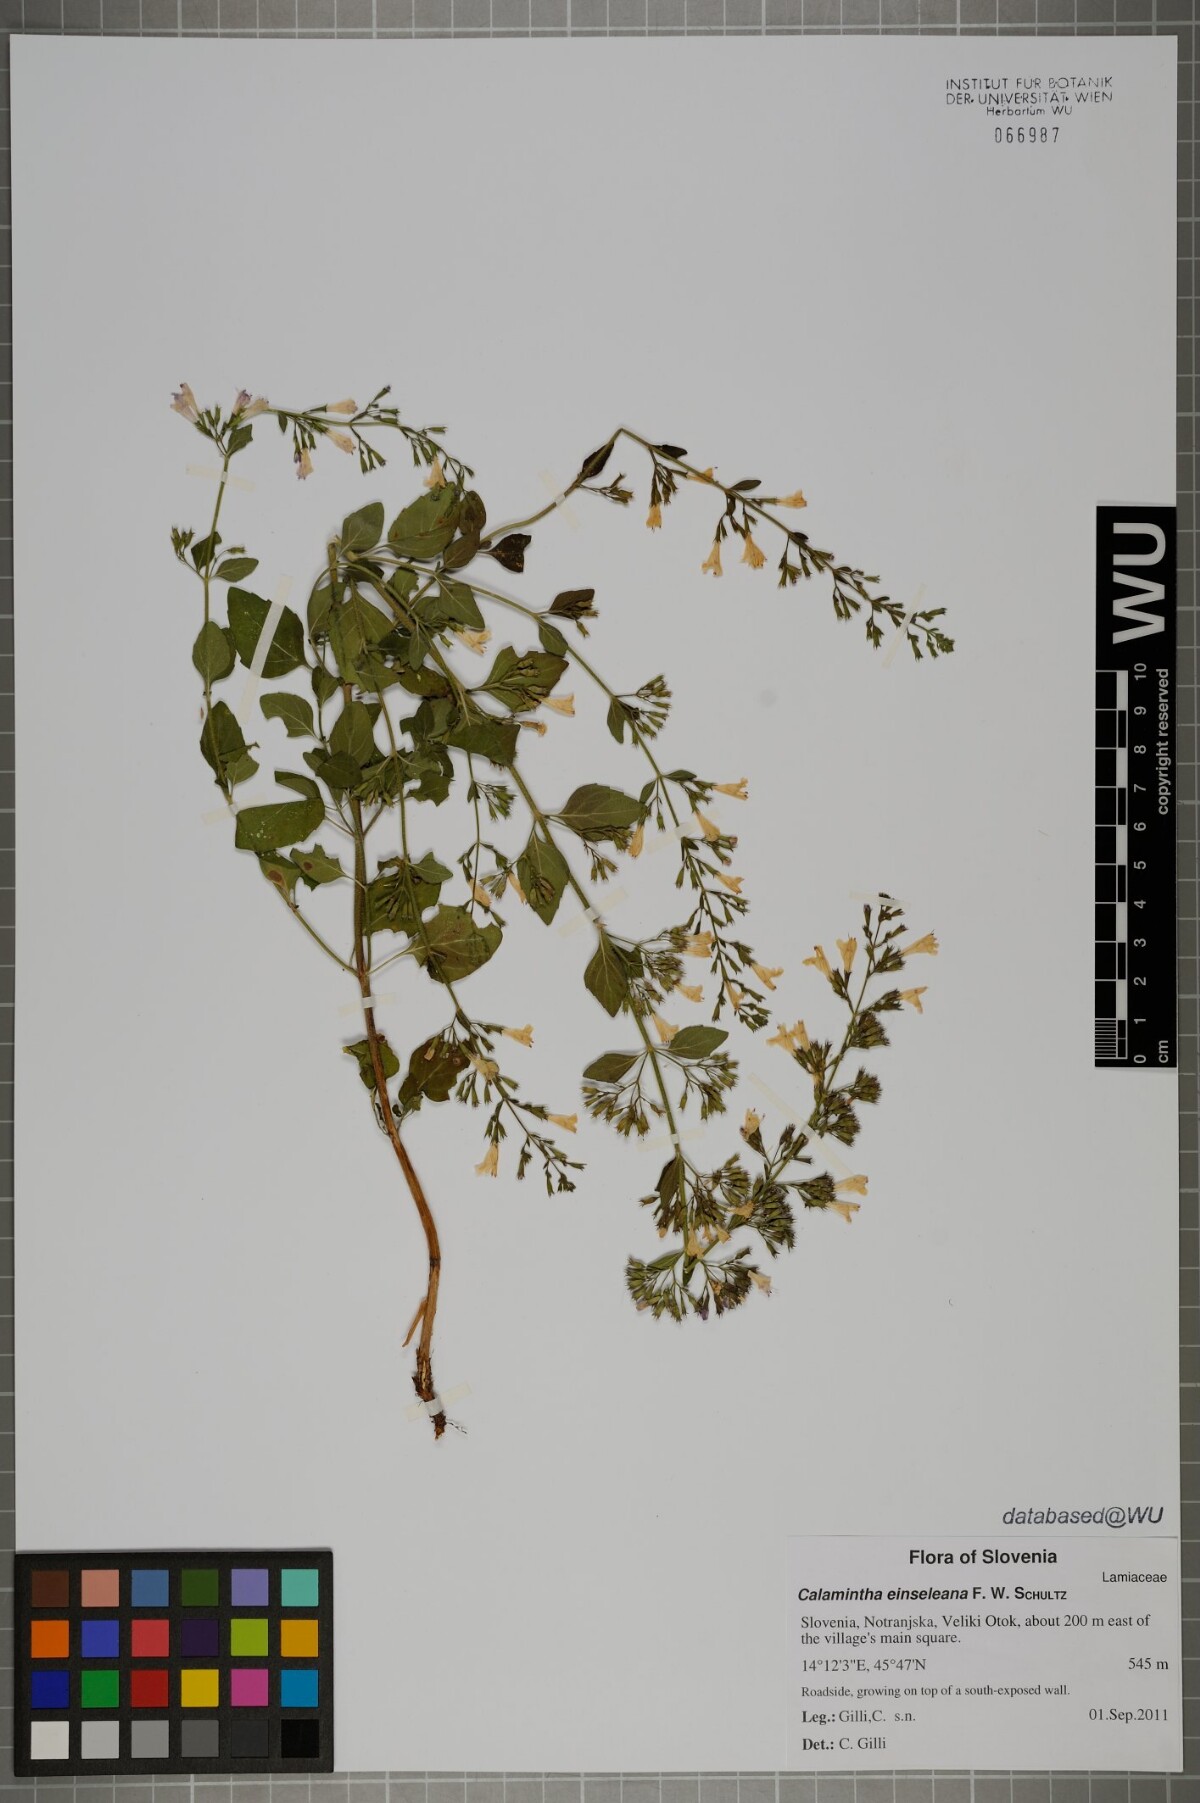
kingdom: Plantae
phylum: Tracheophyta
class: Magnoliopsida
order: Lamiales
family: Lamiaceae
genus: Clinopodium
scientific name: Clinopodium nepeta
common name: Lesser calamint
